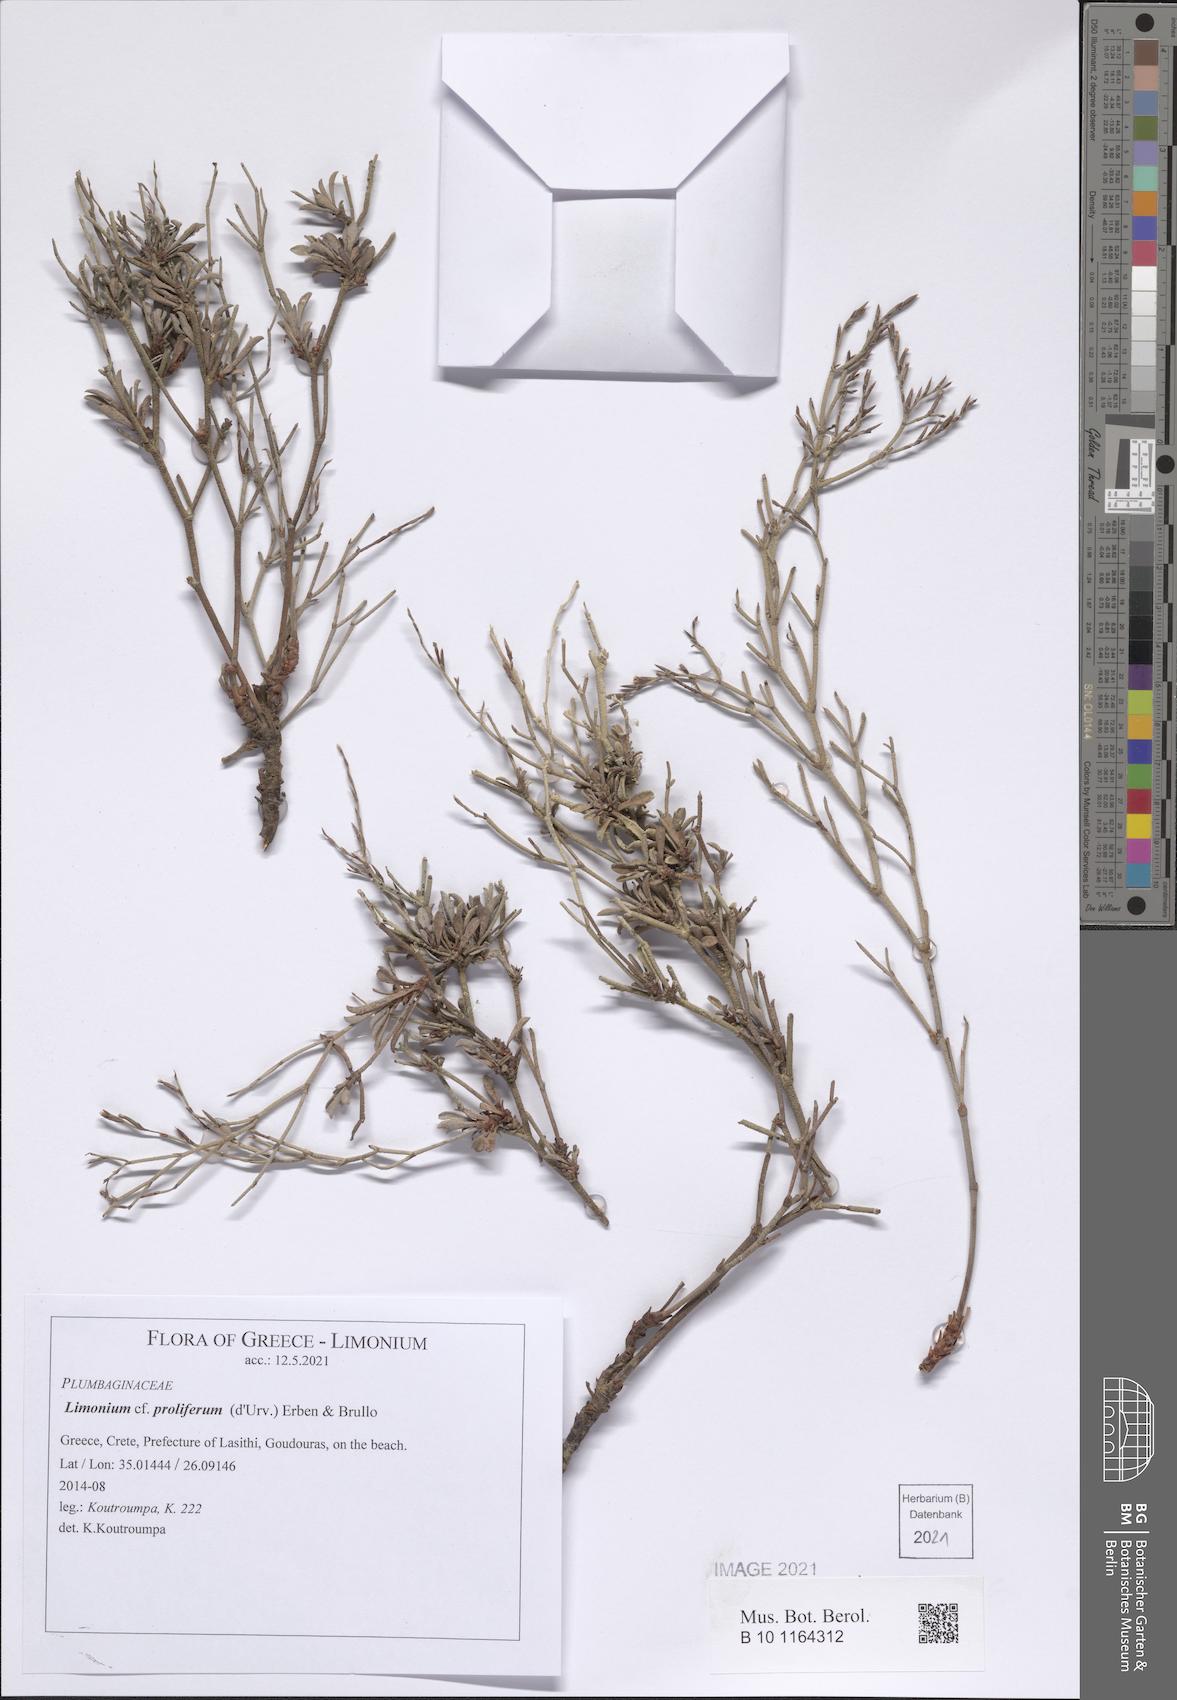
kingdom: Plantae
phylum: Tracheophyta
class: Magnoliopsida
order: Caryophyllales
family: Plumbaginaceae
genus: Limonium
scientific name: Limonium proliferum
